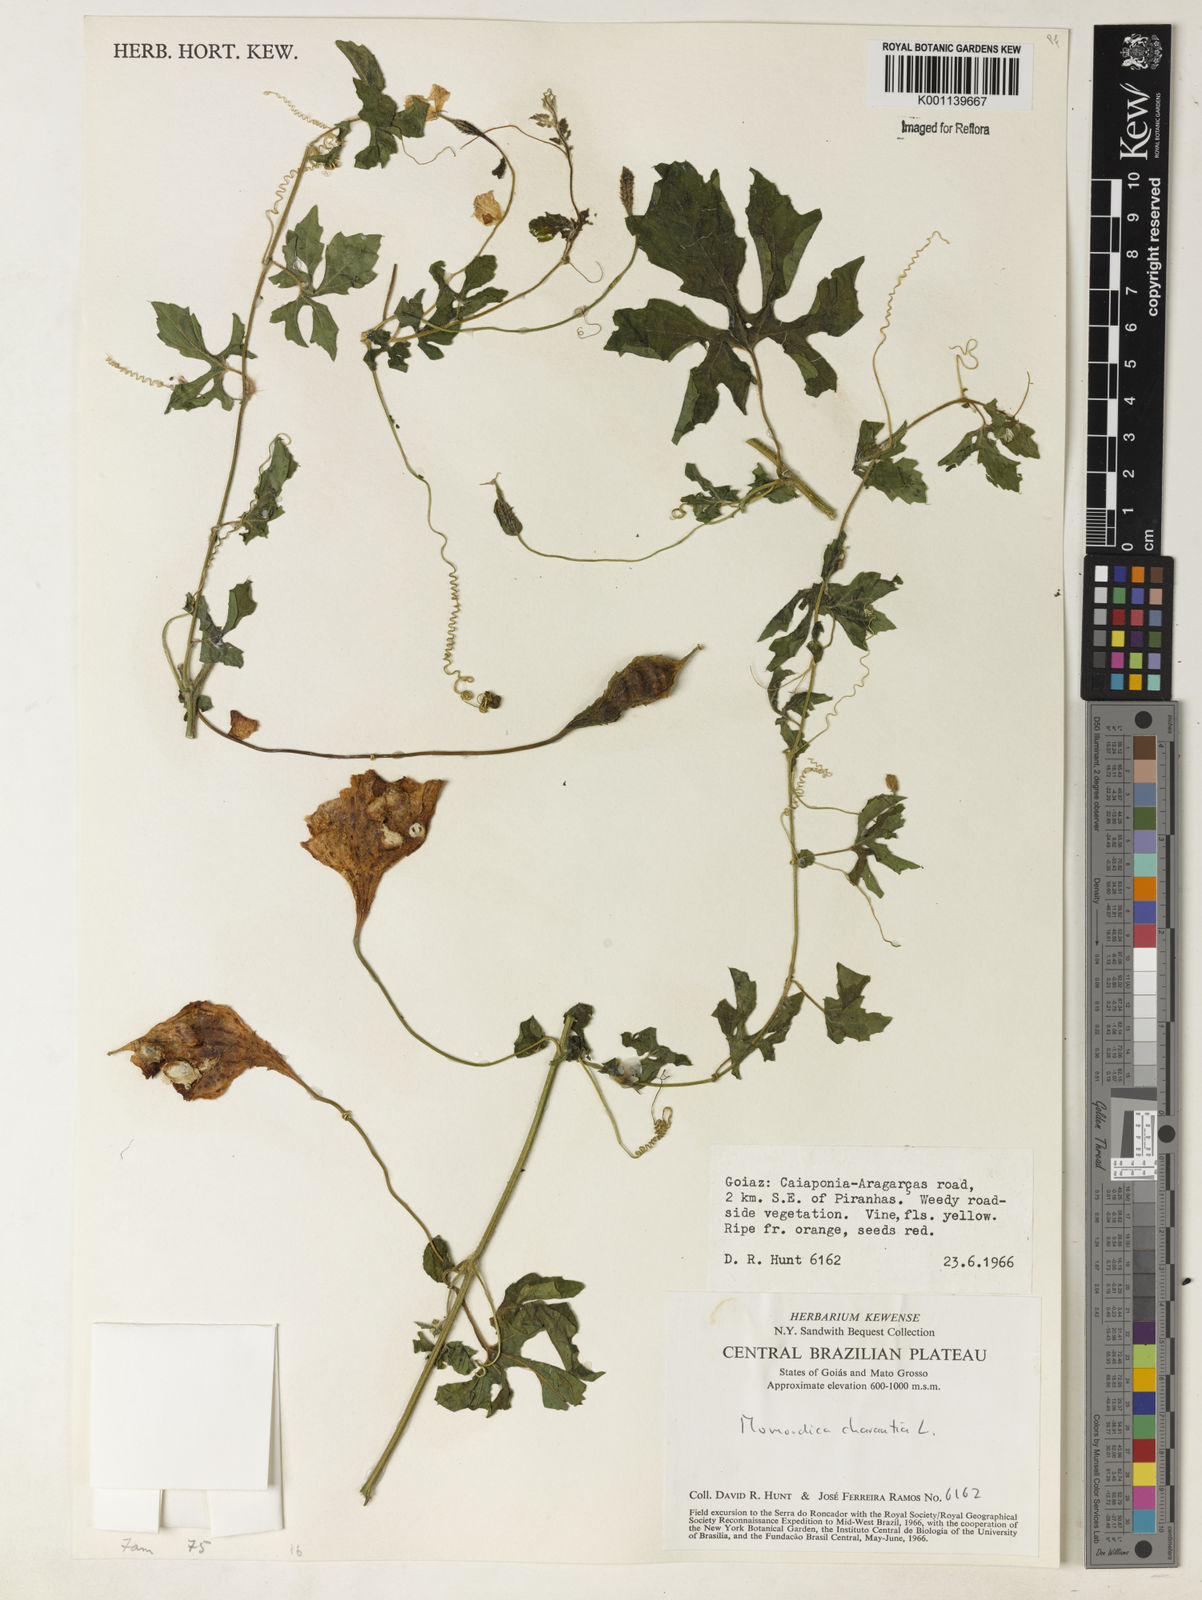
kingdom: Plantae
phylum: Tracheophyta
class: Magnoliopsida
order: Cucurbitales
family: Cucurbitaceae
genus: Momordica
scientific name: Momordica charantia
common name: Balsampear
